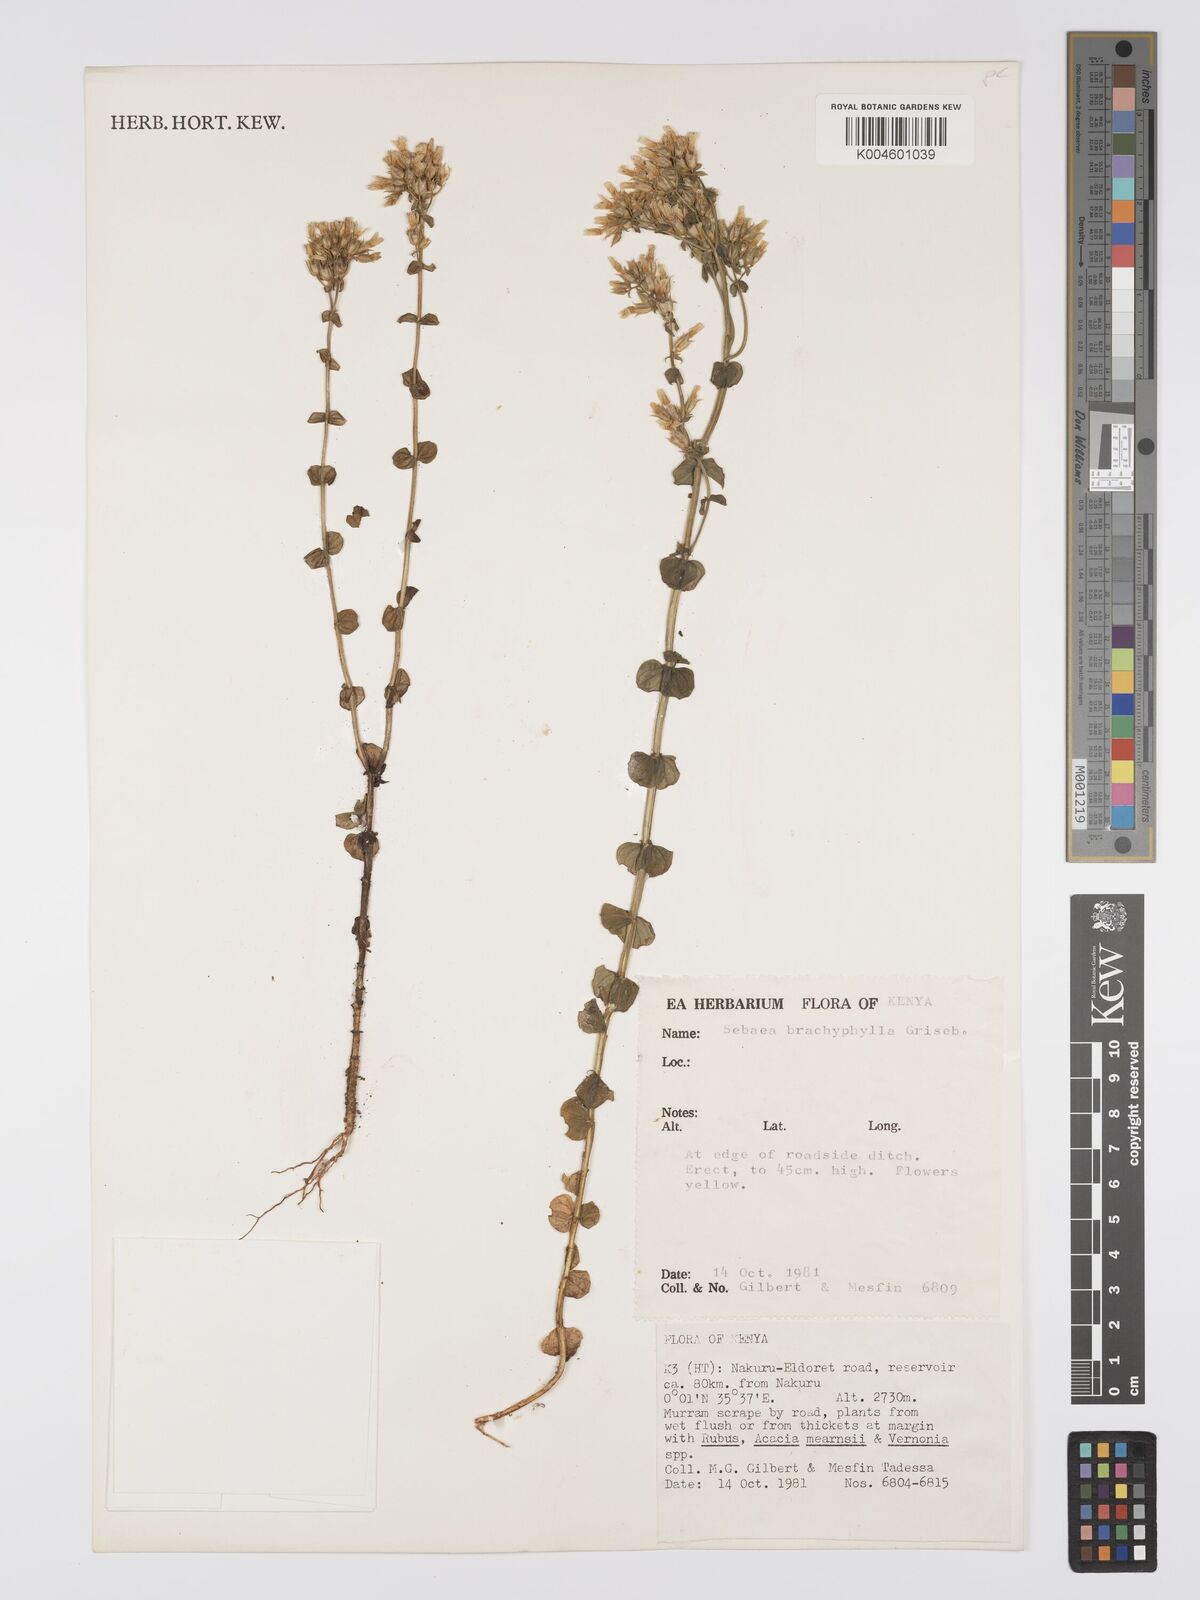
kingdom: Plantae
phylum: Tracheophyta
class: Magnoliopsida
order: Gentianales
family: Gentianaceae
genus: Sebaea
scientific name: Sebaea brachyphylla
